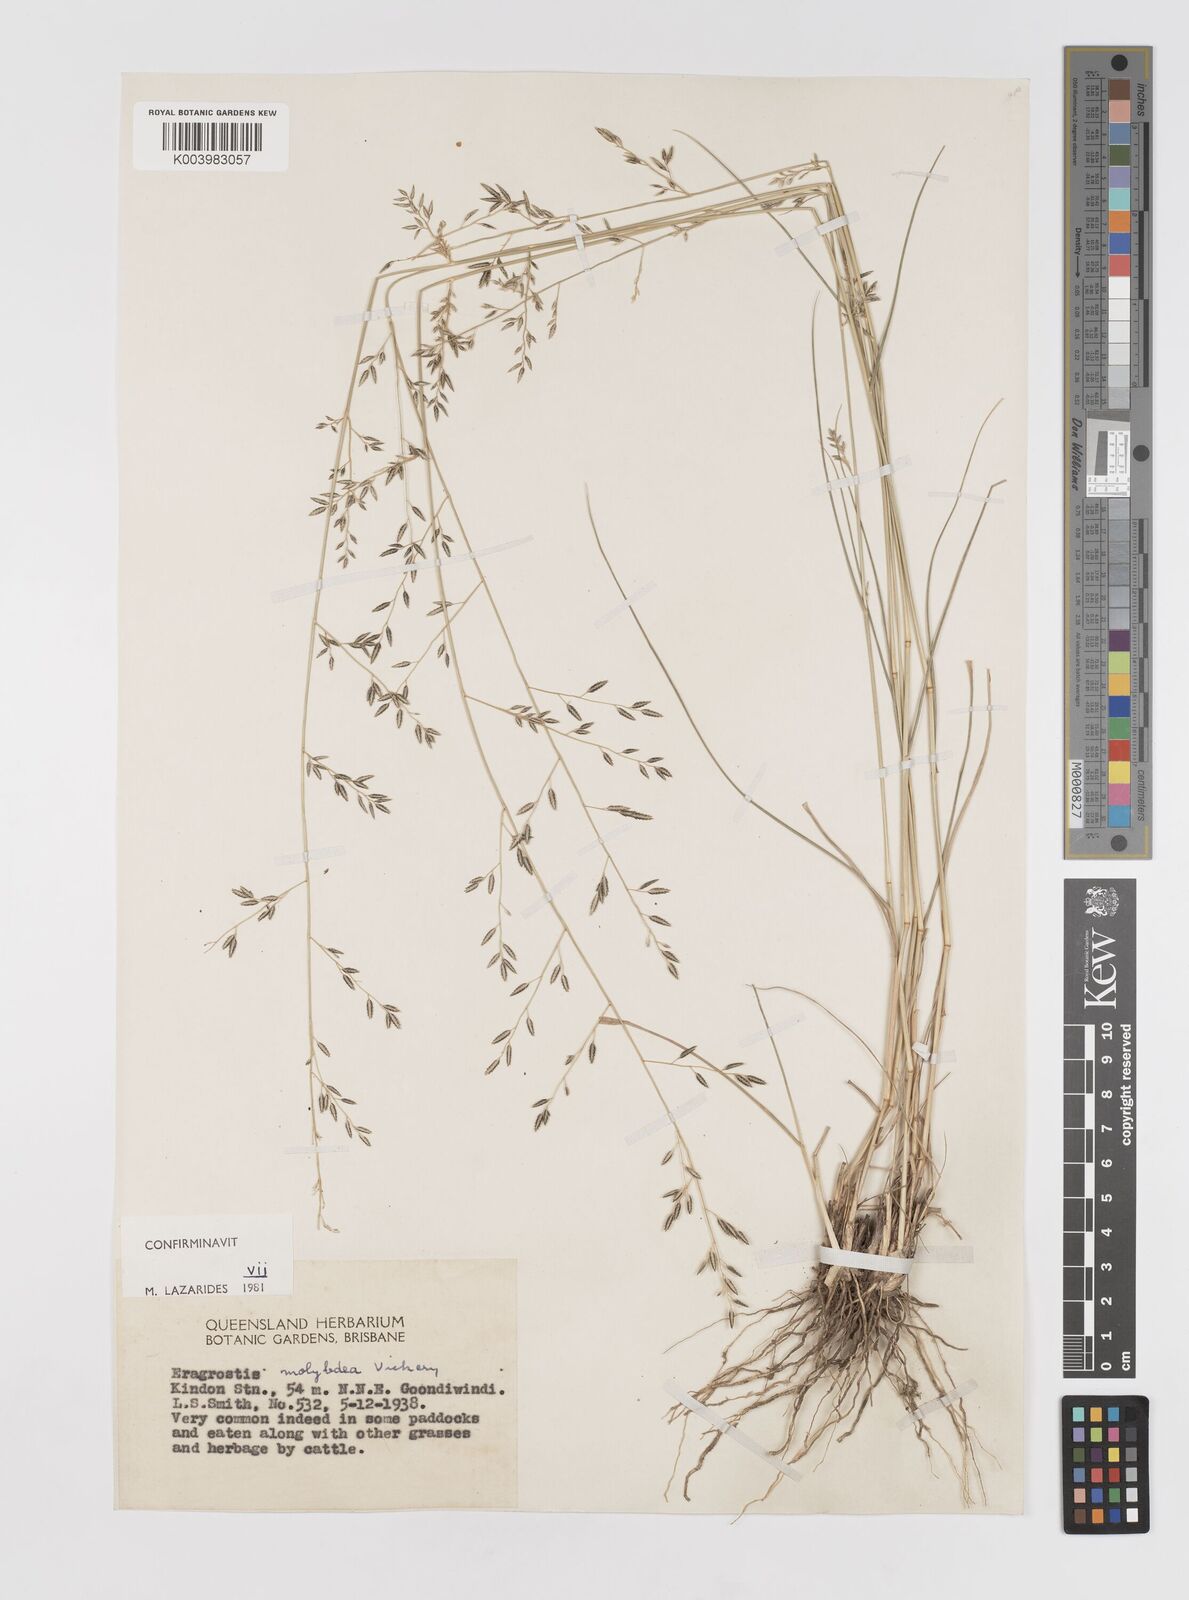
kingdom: Plantae
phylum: Tracheophyta
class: Liliopsida
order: Poales
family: Poaceae
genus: Eragrostis
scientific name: Eragrostis leptostachya
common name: Australian lovegrass
